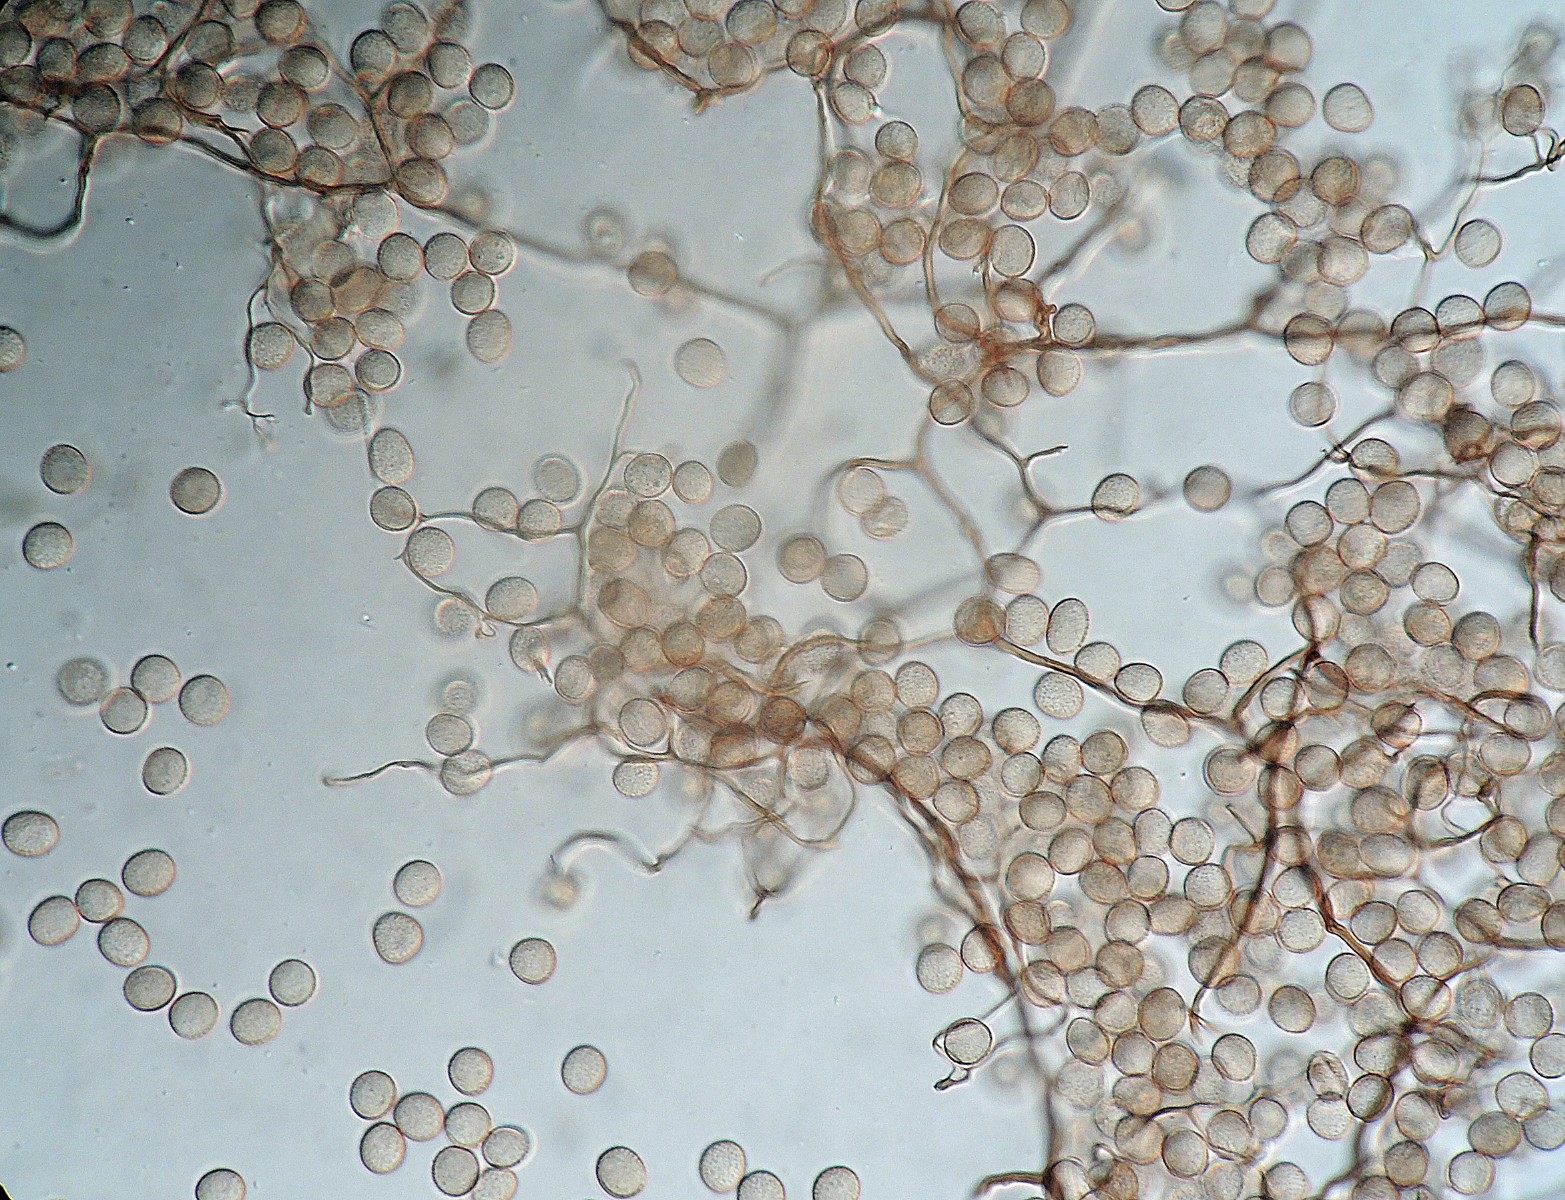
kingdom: Protozoa
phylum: Mycetozoa
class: Myxomycetes
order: Stemonitidales
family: Stemonitidaceae
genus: Comatricha
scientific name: Comatricha pulchella
